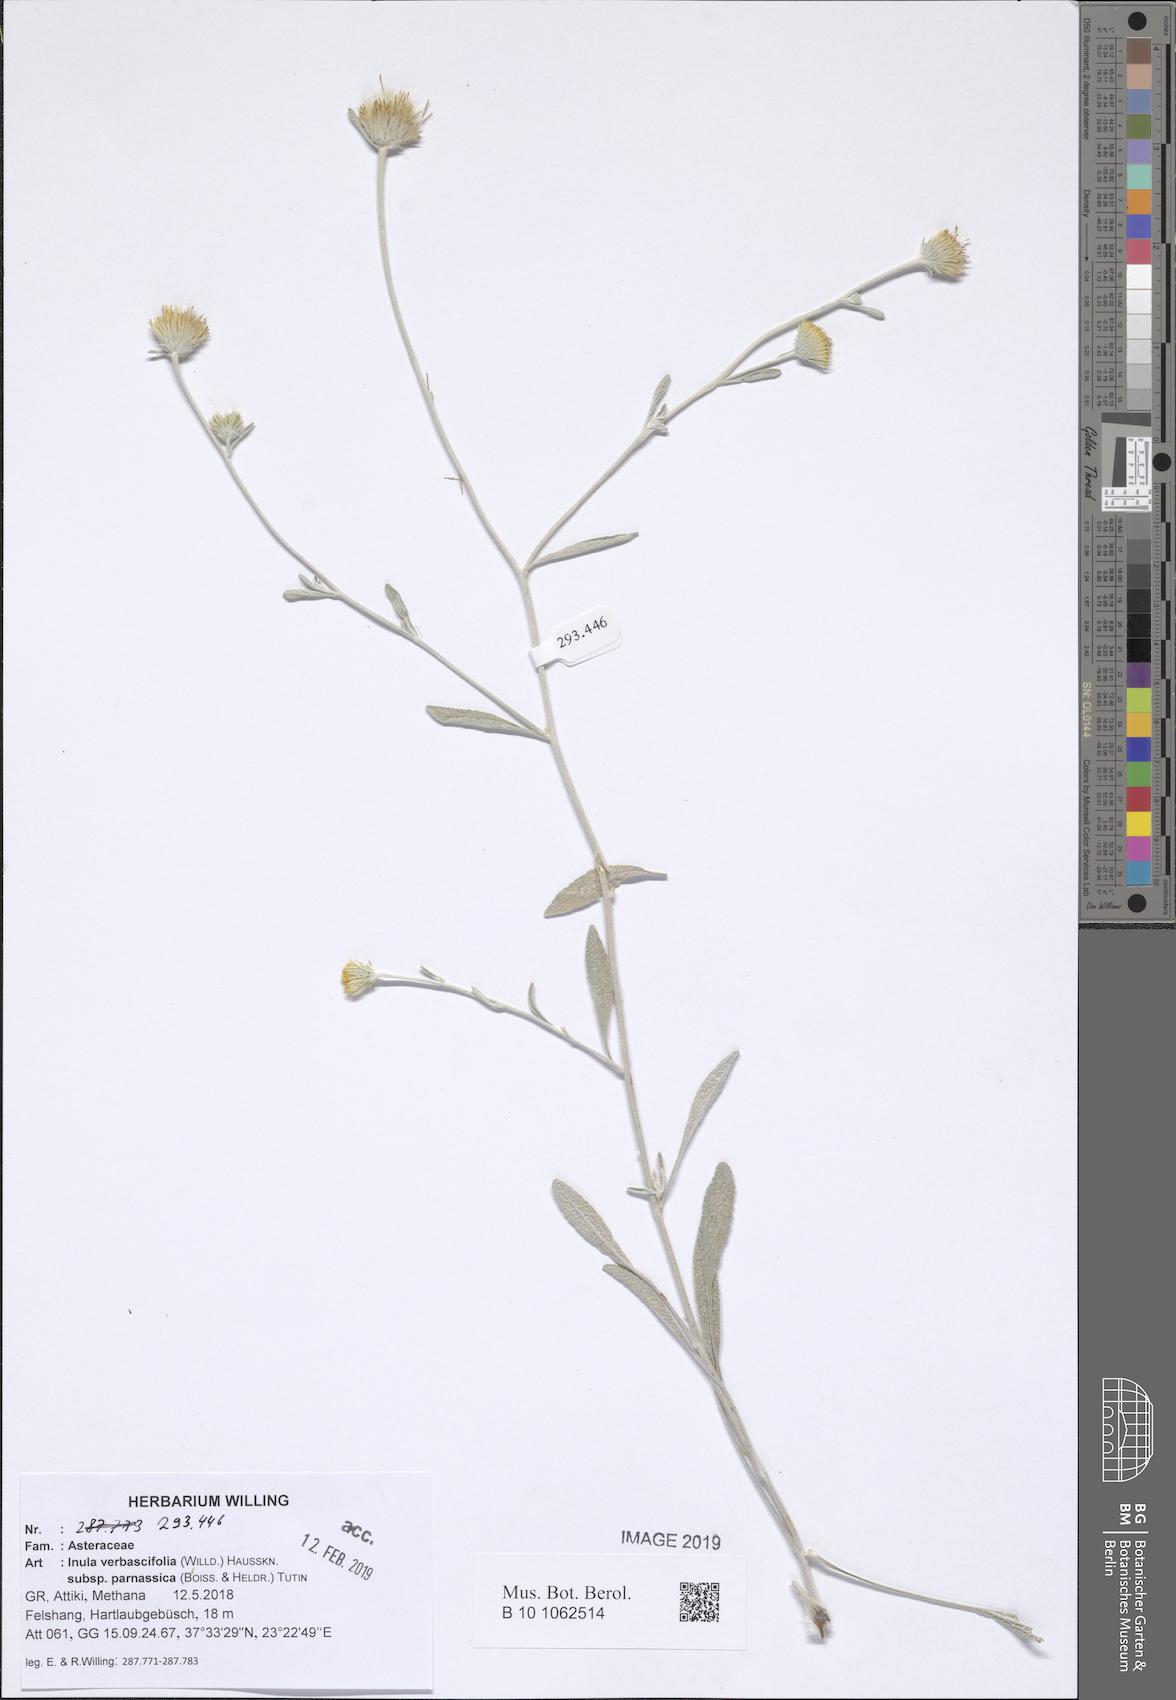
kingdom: Plantae
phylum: Tracheophyta
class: Magnoliopsida
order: Asterales
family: Asteraceae
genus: Pentanema
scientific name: Pentanema verbascifolium
